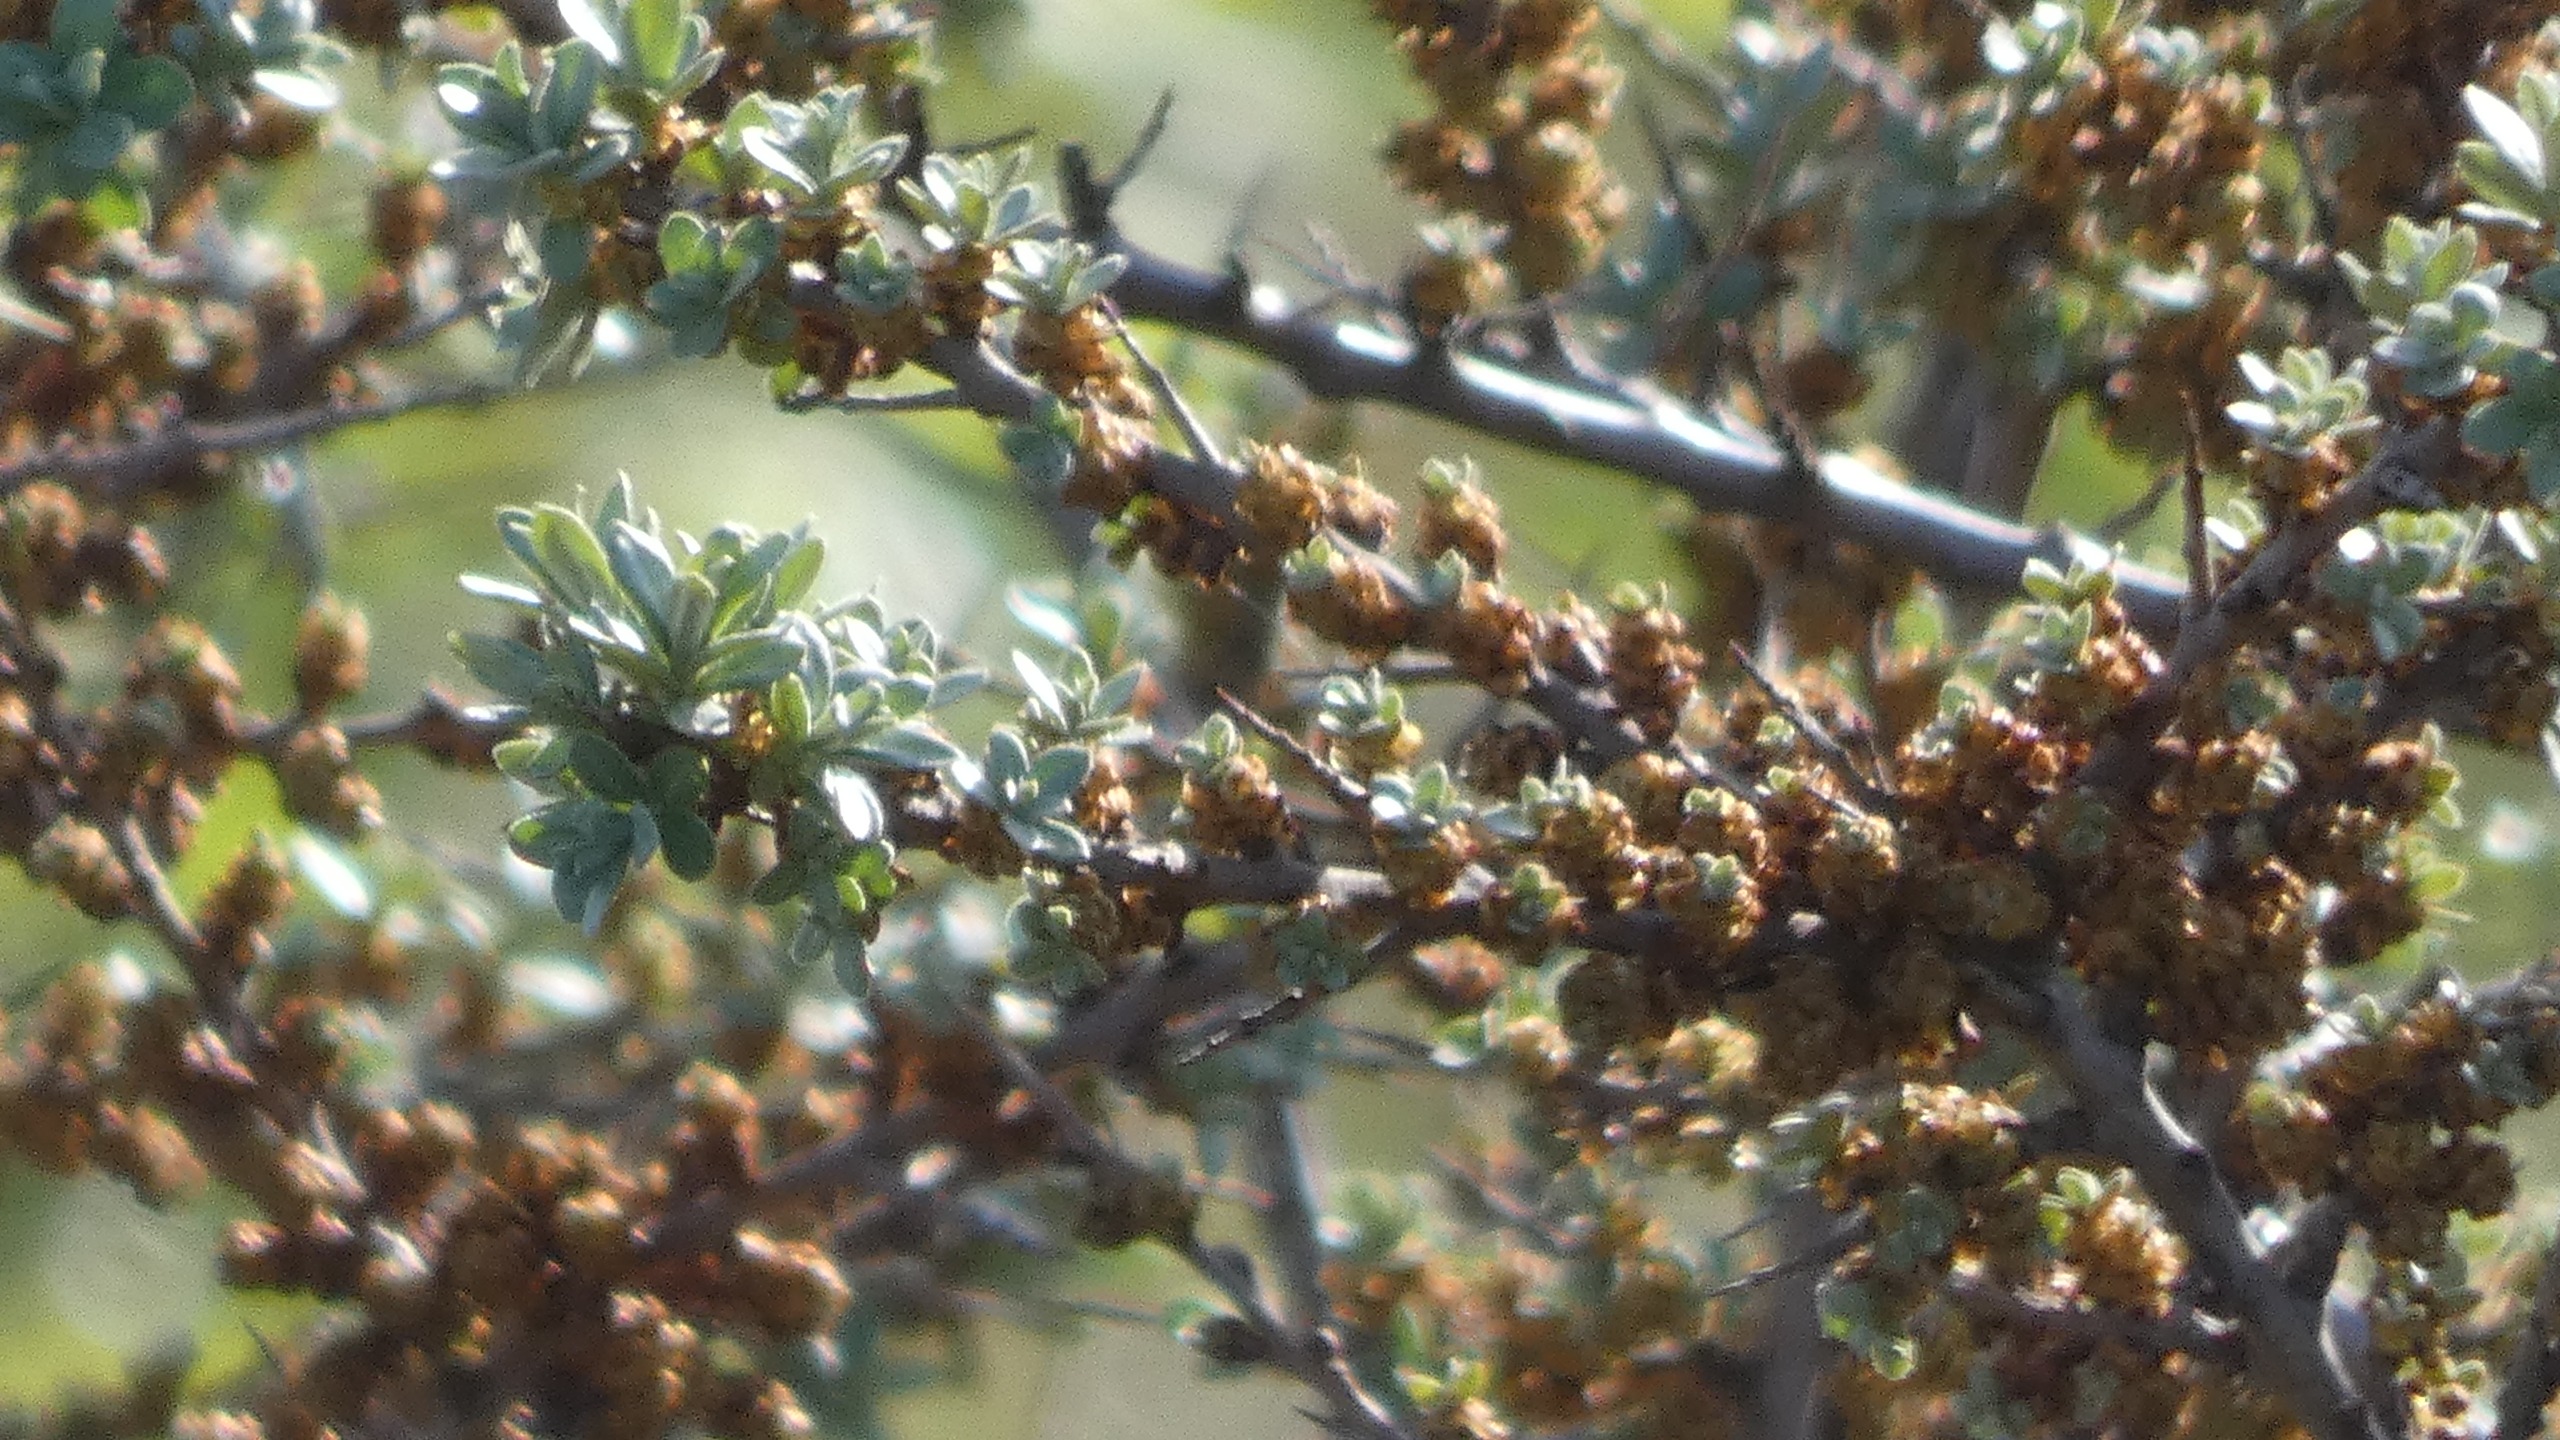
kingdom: Plantae
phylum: Tracheophyta
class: Magnoliopsida
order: Rosales
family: Elaeagnaceae
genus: Hippophae
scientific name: Hippophae rhamnoides
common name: Havtorn
